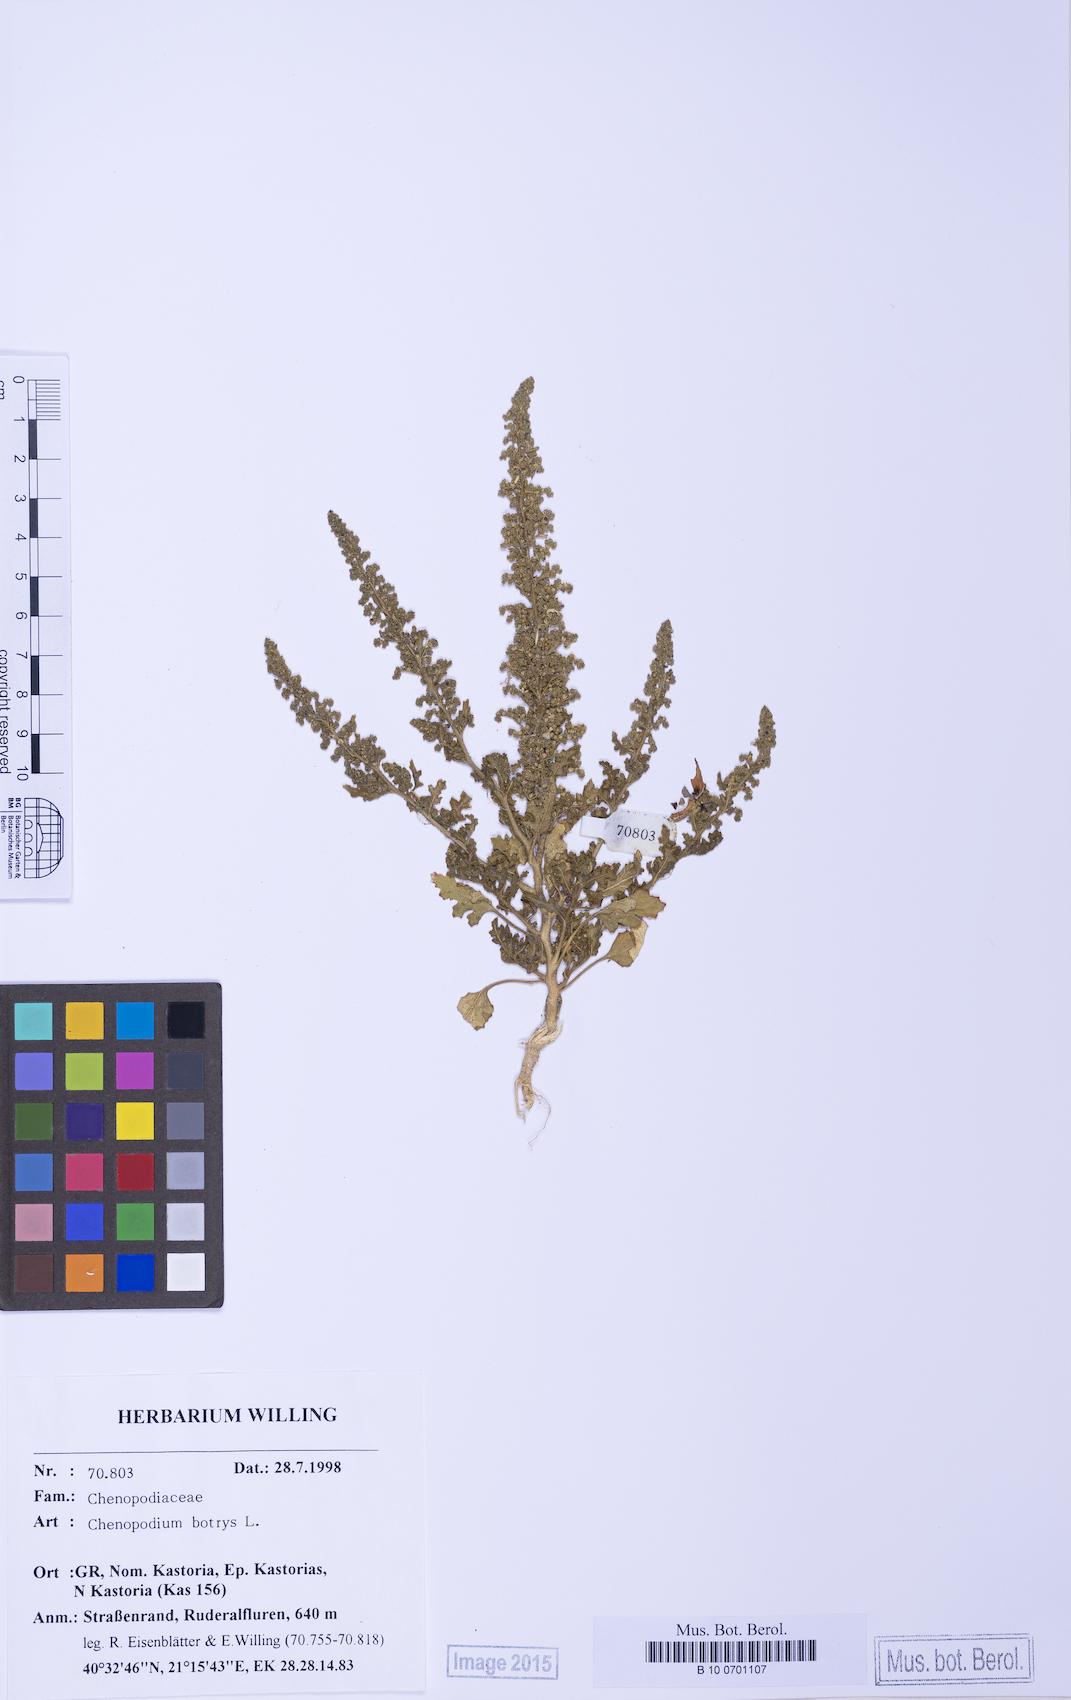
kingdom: Plantae
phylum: Tracheophyta
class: Magnoliopsida
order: Caryophyllales
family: Amaranthaceae
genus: Dysphania
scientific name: Dysphania botrys
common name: Feather-geranium
